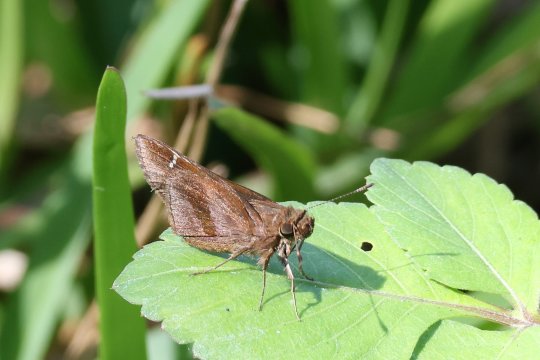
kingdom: Animalia
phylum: Arthropoda
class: Insecta
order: Lepidoptera
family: Hesperiidae
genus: Lerema
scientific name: Lerema accius
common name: Clouded Skipper
